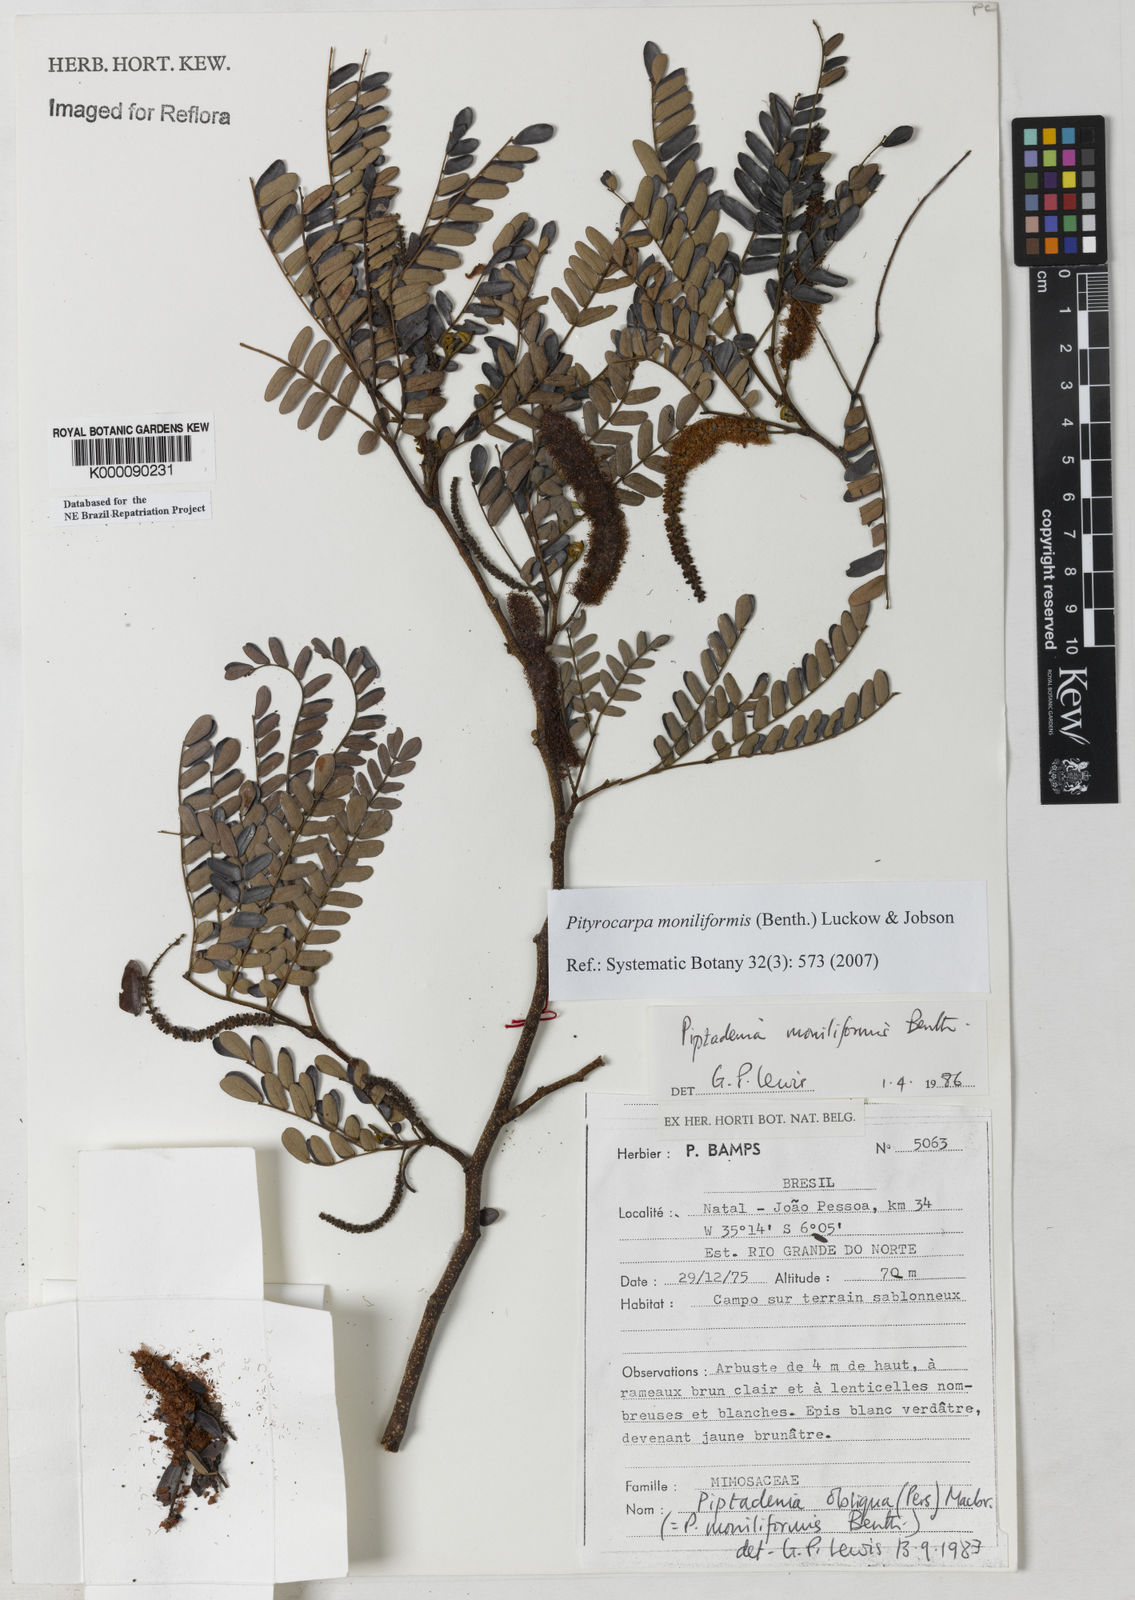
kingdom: Plantae
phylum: Tracheophyta
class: Magnoliopsida
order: Fabales
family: Fabaceae
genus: Pityrocarpa
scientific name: Pityrocarpa moniliformis
